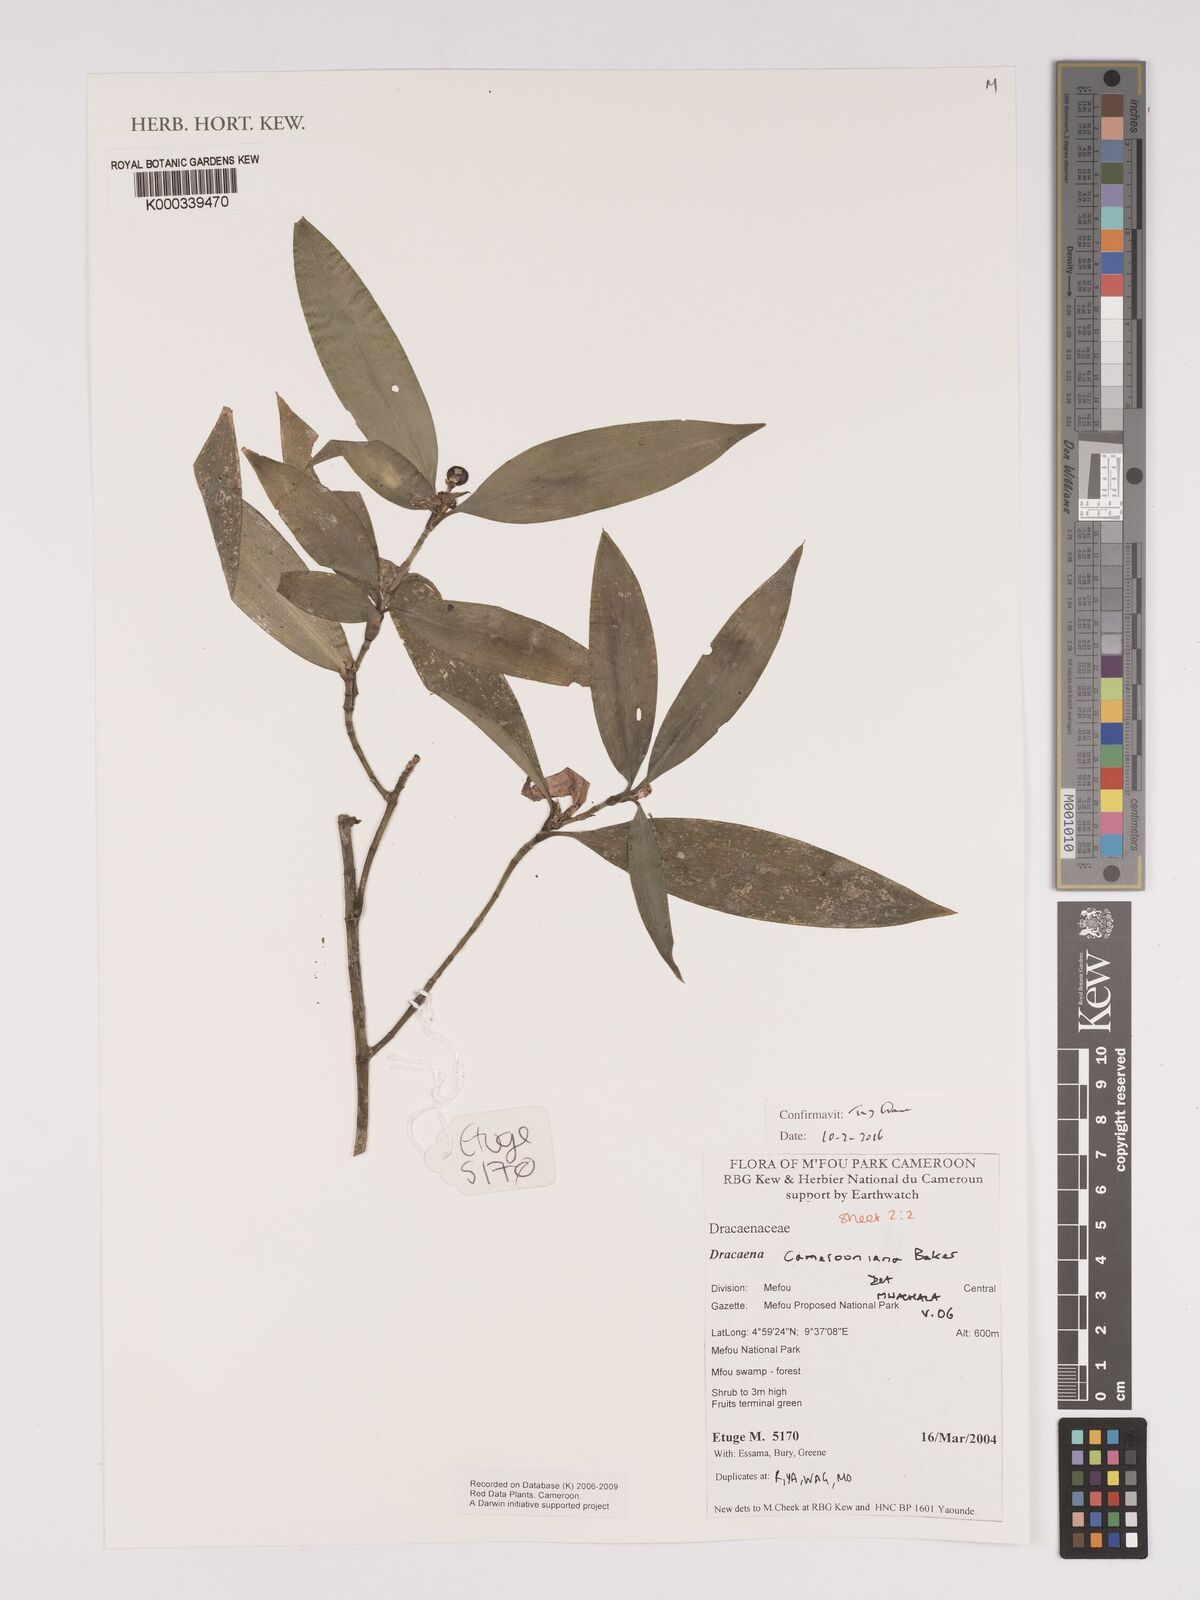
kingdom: Plantae
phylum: Tracheophyta
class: Liliopsida
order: Asparagales
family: Asparagaceae
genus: Dracaena
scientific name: Dracaena camerooniana
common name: Dragon tree
